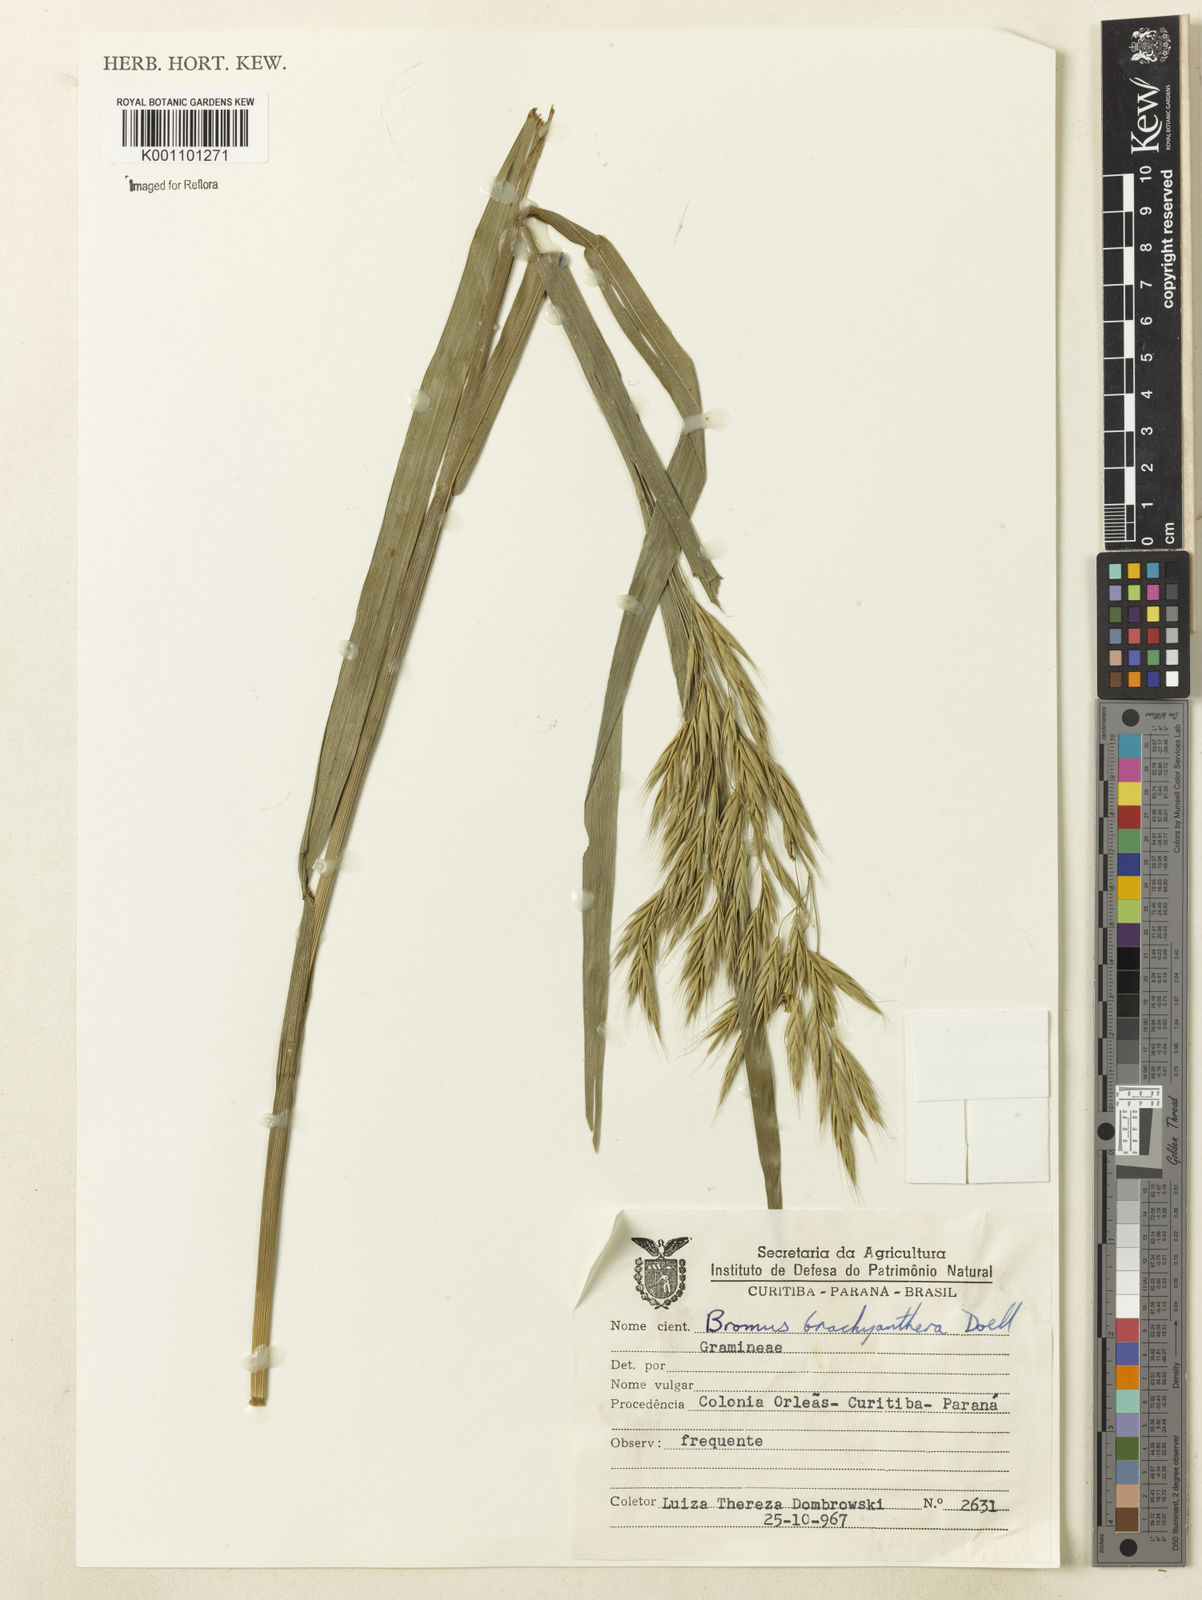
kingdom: Plantae
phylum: Tracheophyta
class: Liliopsida
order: Poales
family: Poaceae
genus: Bromus
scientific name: Bromus
